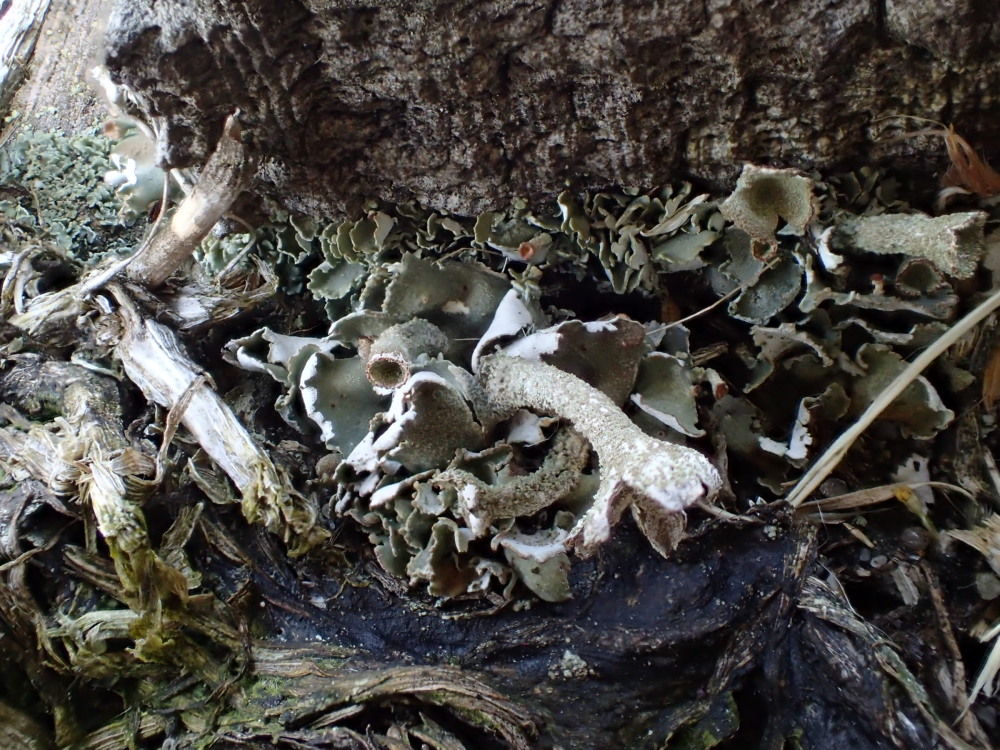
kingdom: Fungi
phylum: Ascomycota
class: Lecanoromycetes
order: Lecanorales
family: Cladoniaceae
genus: Cladonia
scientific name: Cladonia digitata
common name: finger-bægerlav
